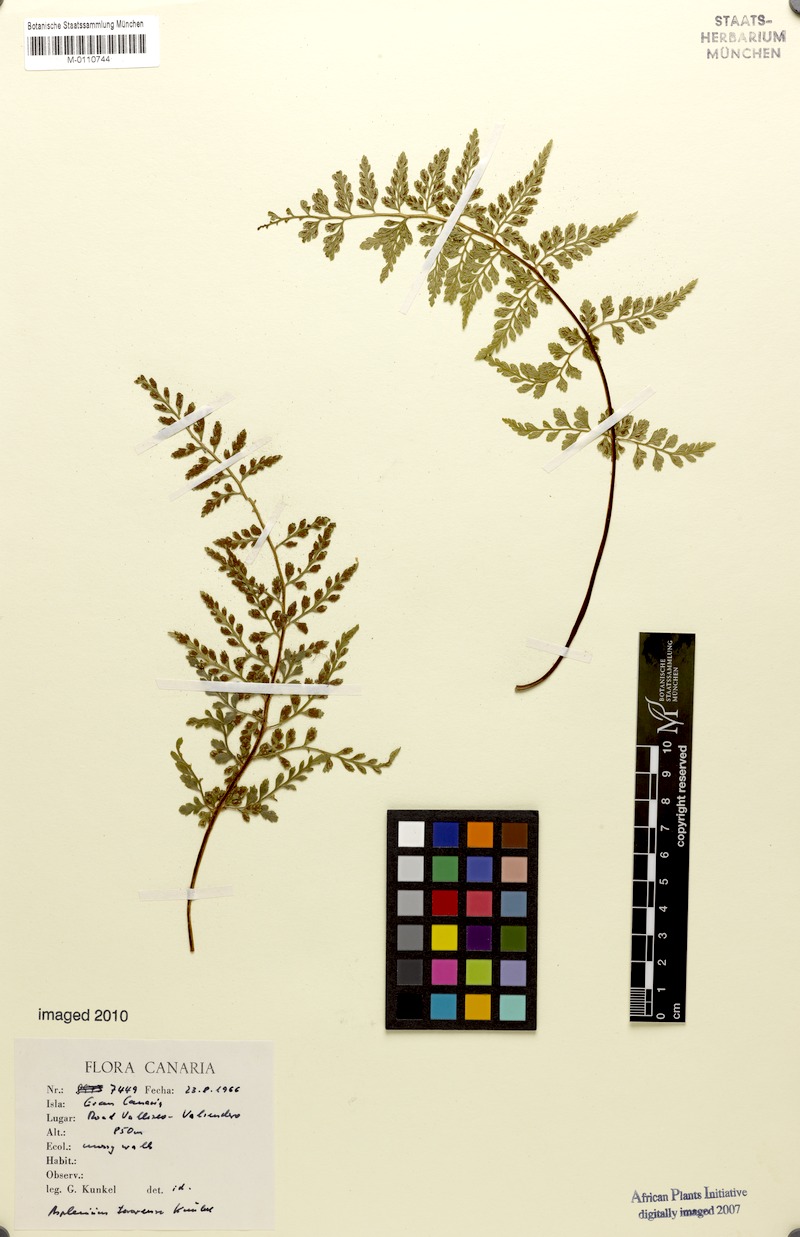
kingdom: Plantae
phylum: Tracheophyta
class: Polypodiopsida
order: Polypodiales
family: Aspleniaceae
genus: Asplenium
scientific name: Asplenium terorense
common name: Teror spleenwort
